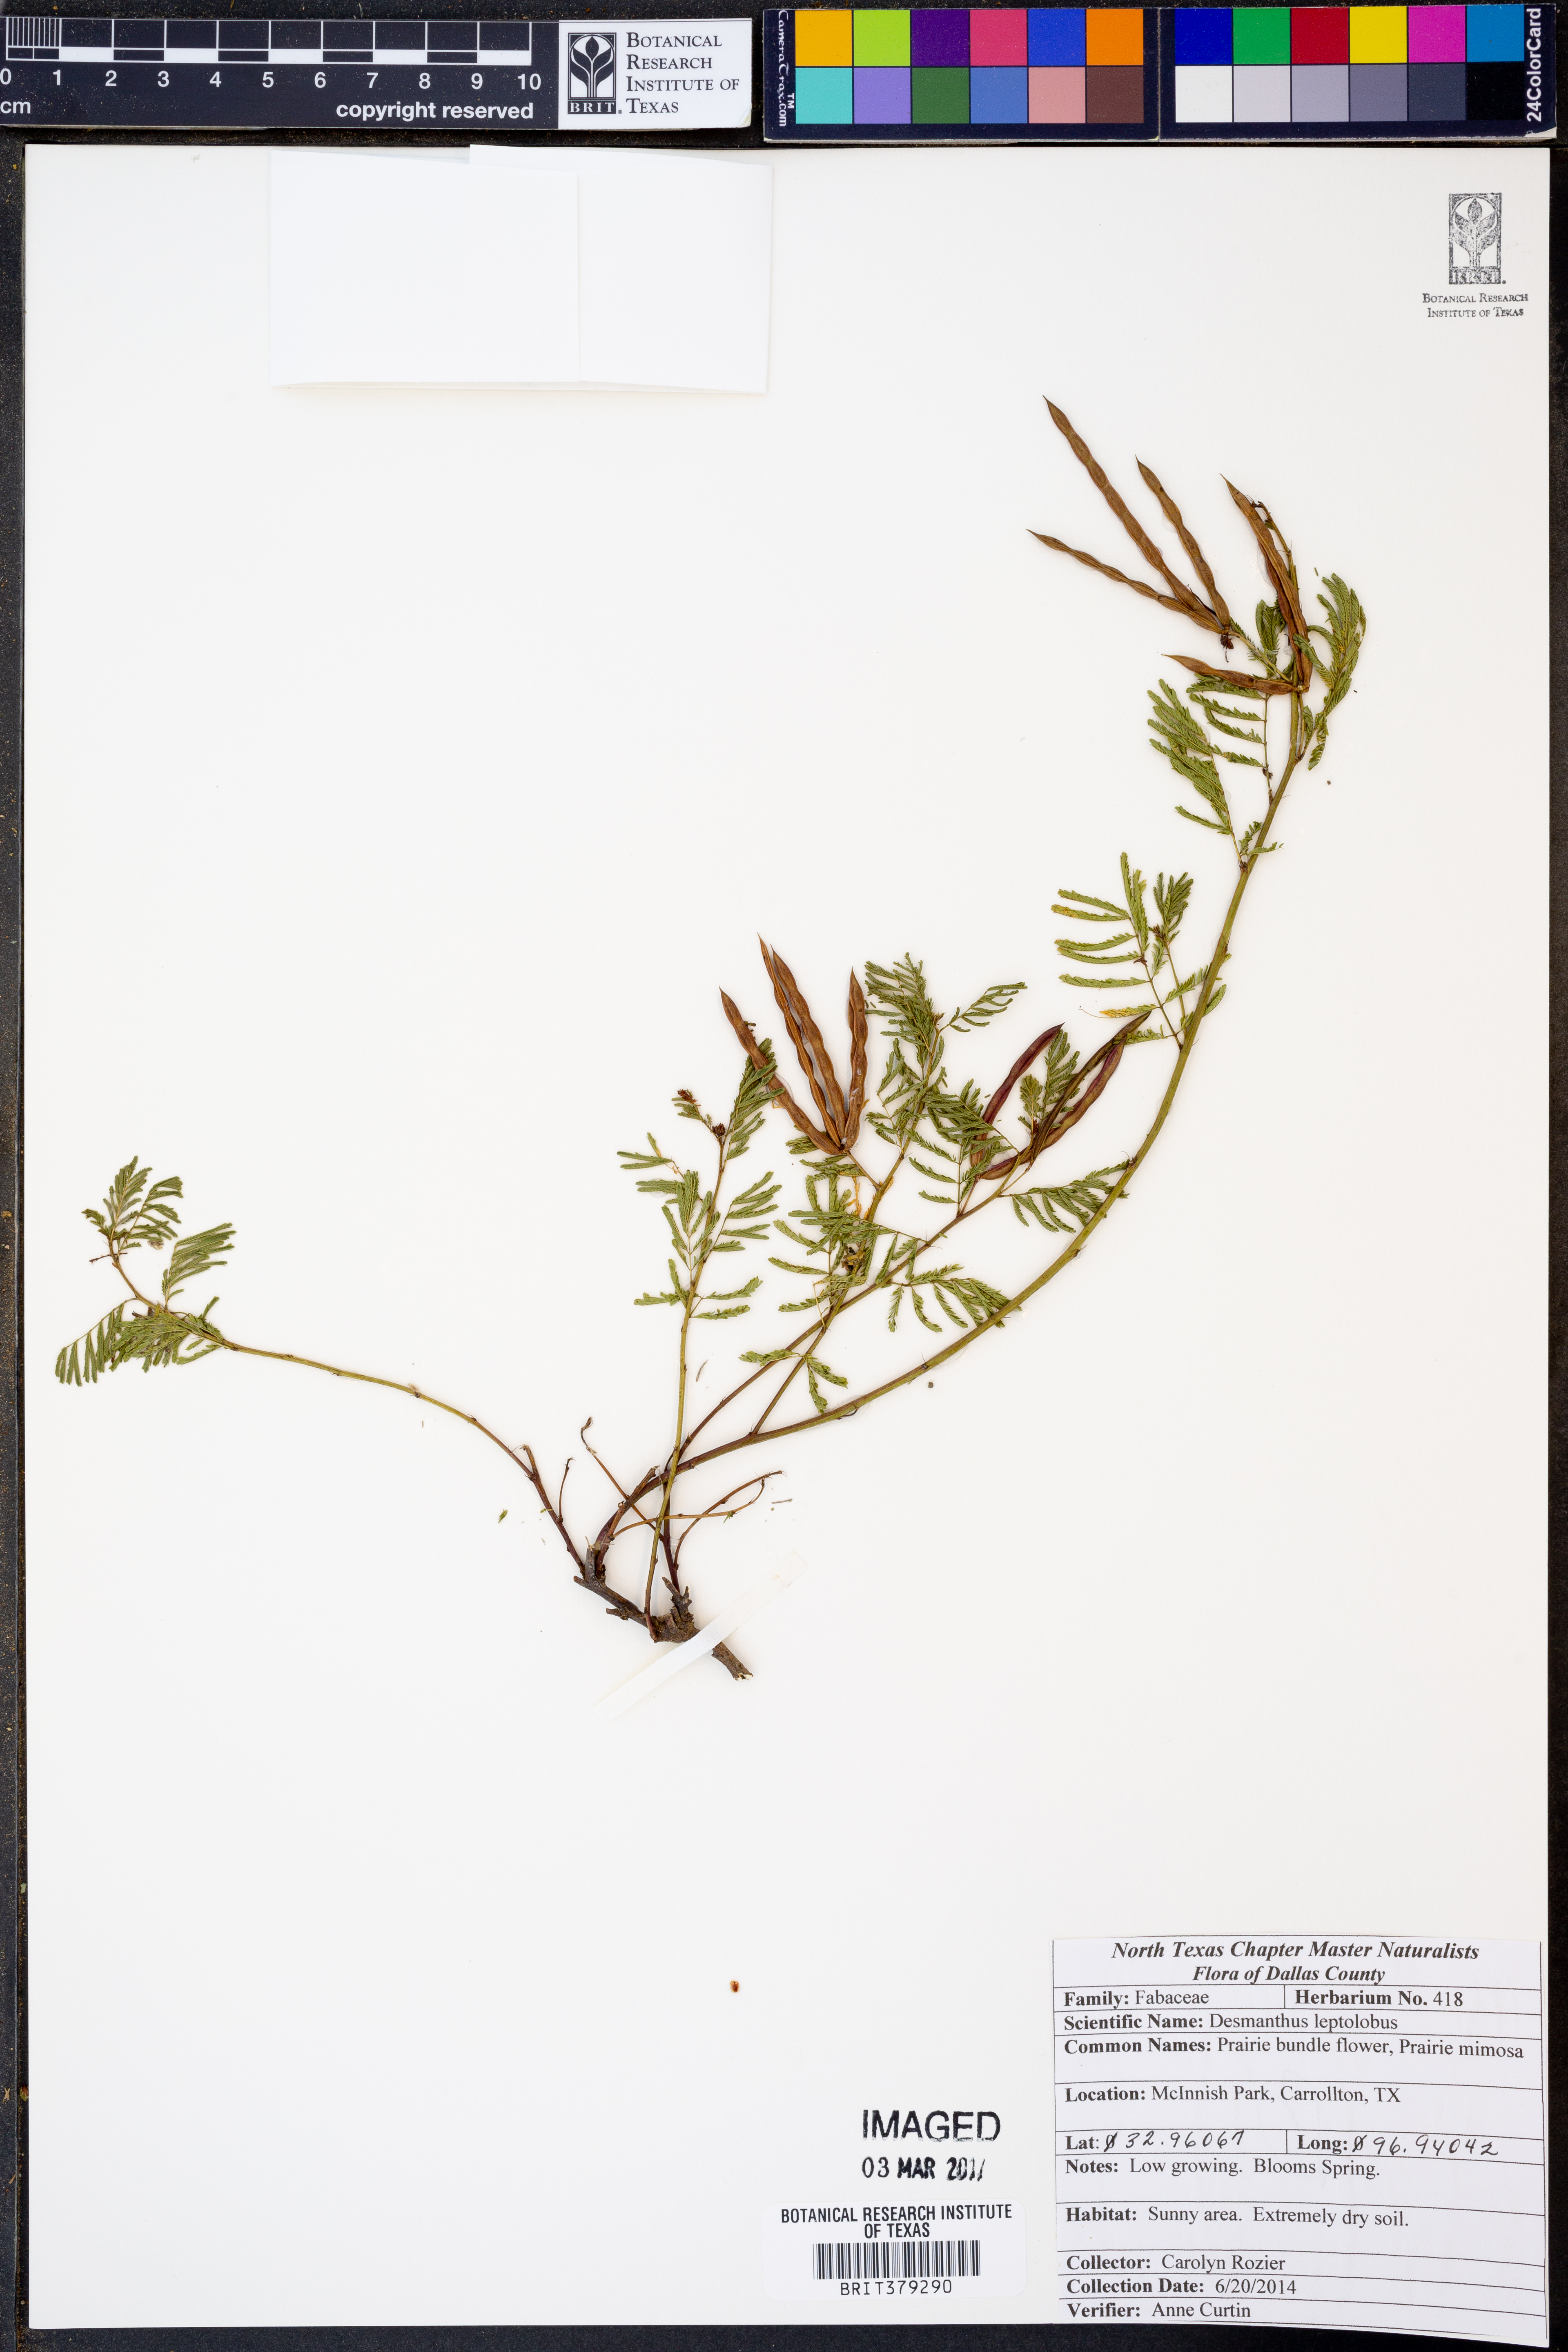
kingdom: Plantae
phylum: Tracheophyta
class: Magnoliopsida
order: Fabales
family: Fabaceae
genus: Desmanthus
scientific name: Desmanthus leptolobus
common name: Prairie-mimosa
